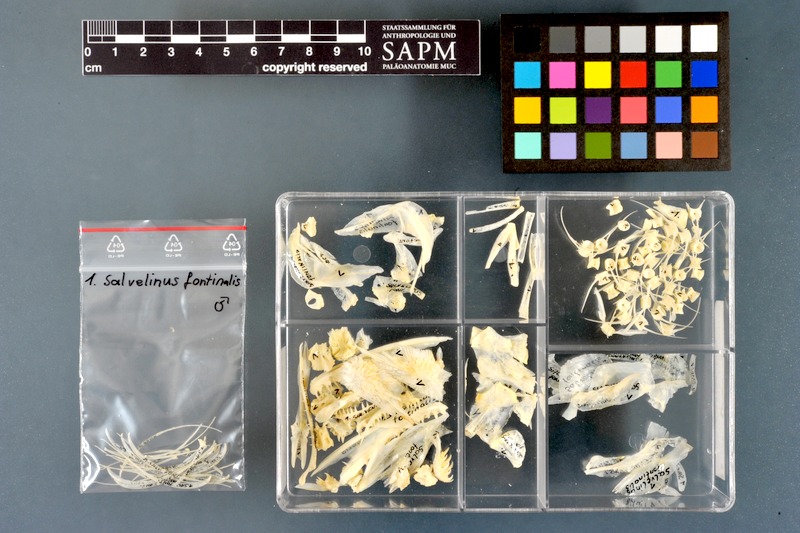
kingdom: Animalia
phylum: Chordata
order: Salmoniformes
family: Salmonidae
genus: Salvelinus
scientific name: Salvelinus fontinalis
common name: Brook trout
